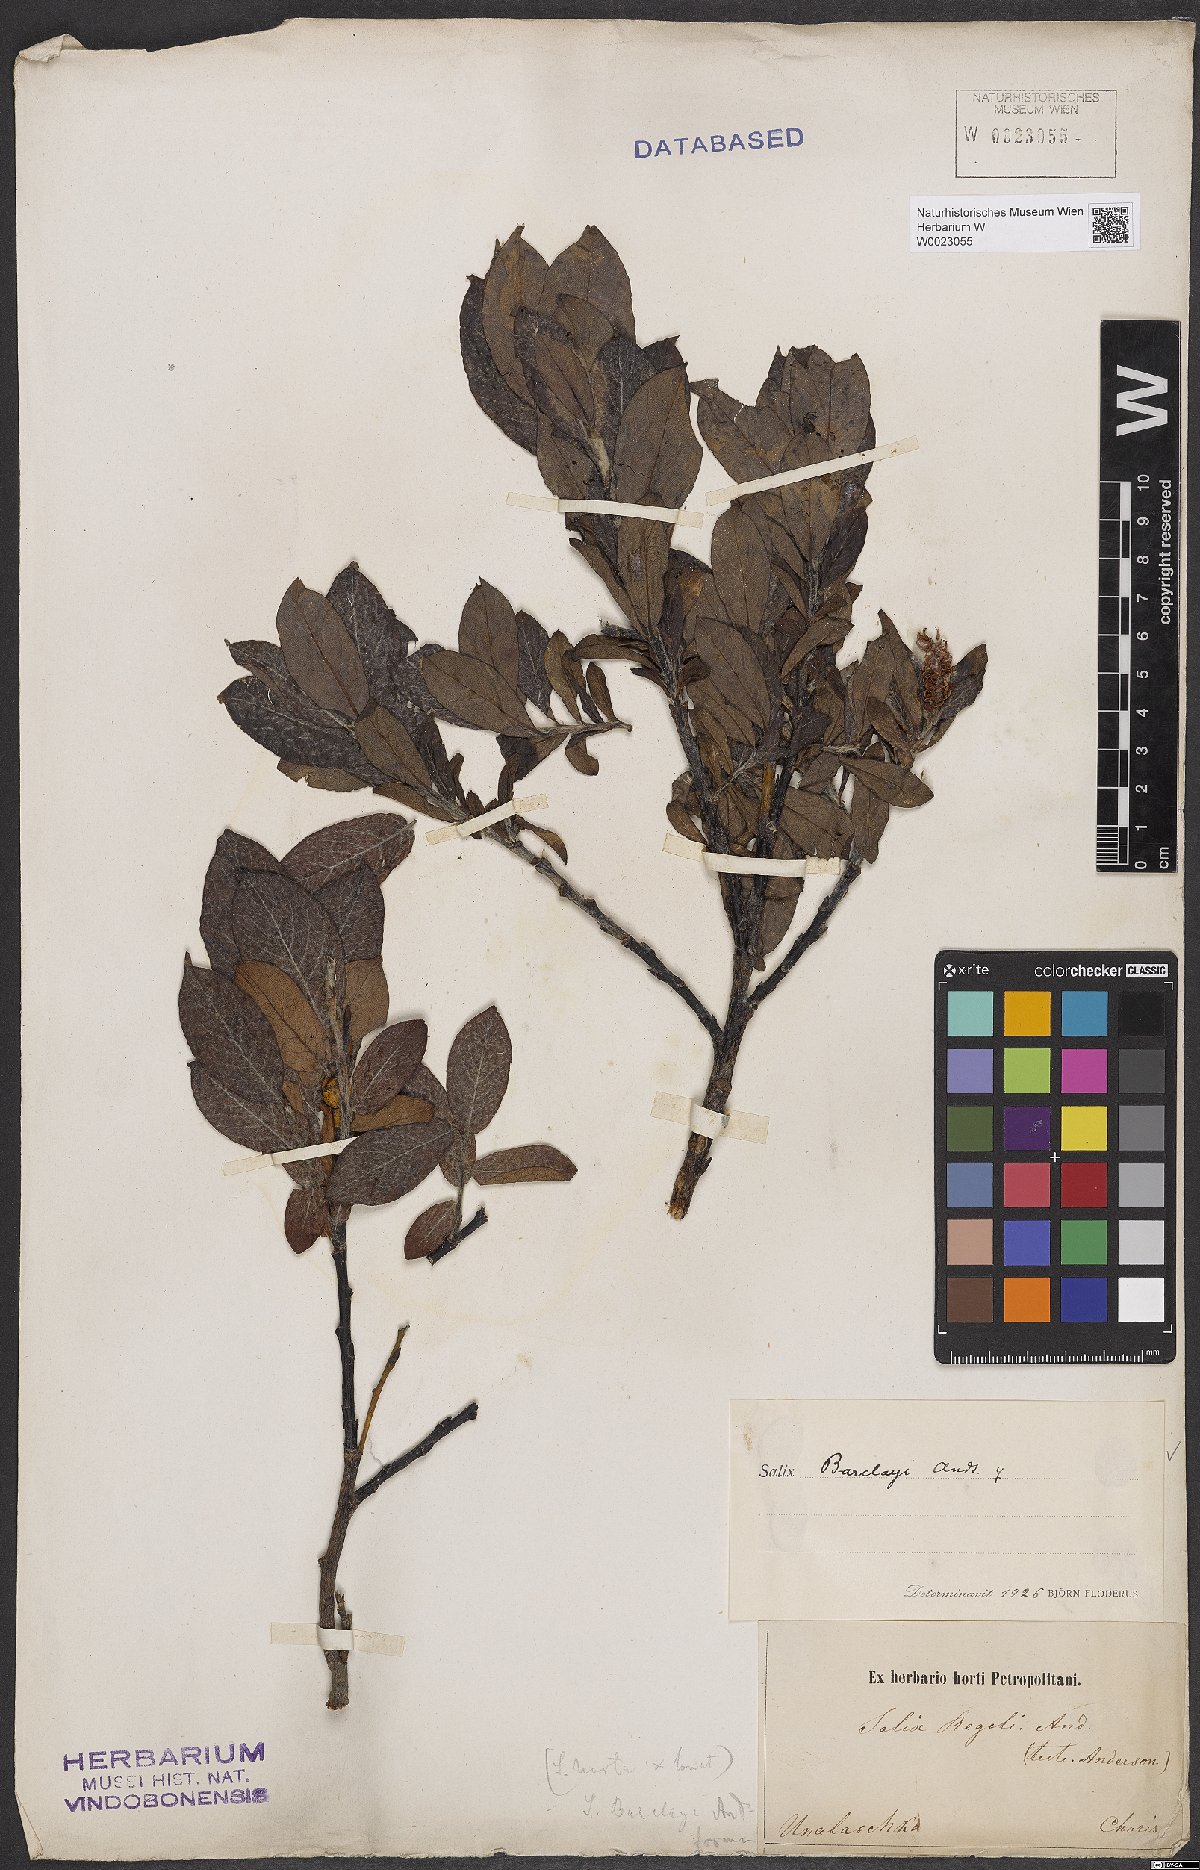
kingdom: Plantae
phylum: Tracheophyta
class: Magnoliopsida
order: Malpighiales
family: Salicaceae
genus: Salix
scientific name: Salix barclayi
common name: Mountain willow
